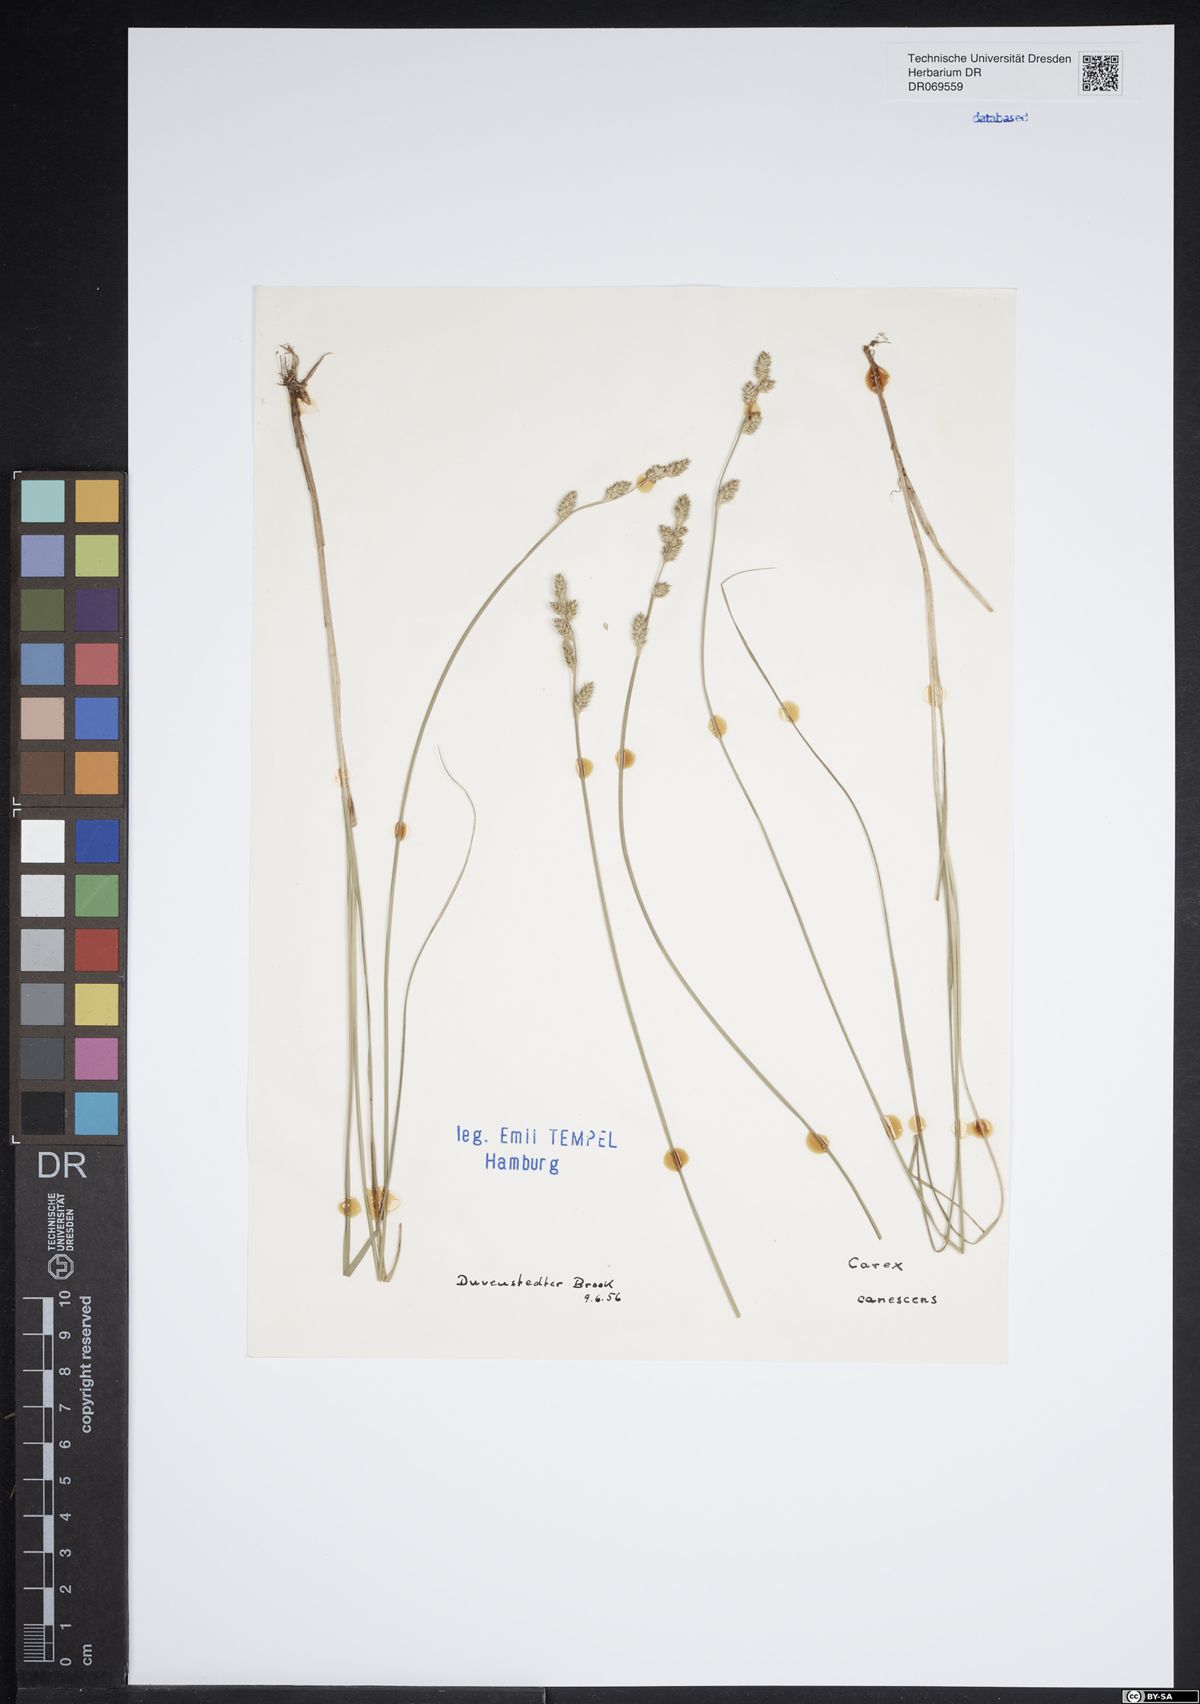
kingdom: Plantae
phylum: Tracheophyta
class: Liliopsida
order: Poales
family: Cyperaceae
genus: Carex
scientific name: Carex canescens
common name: White sedge
